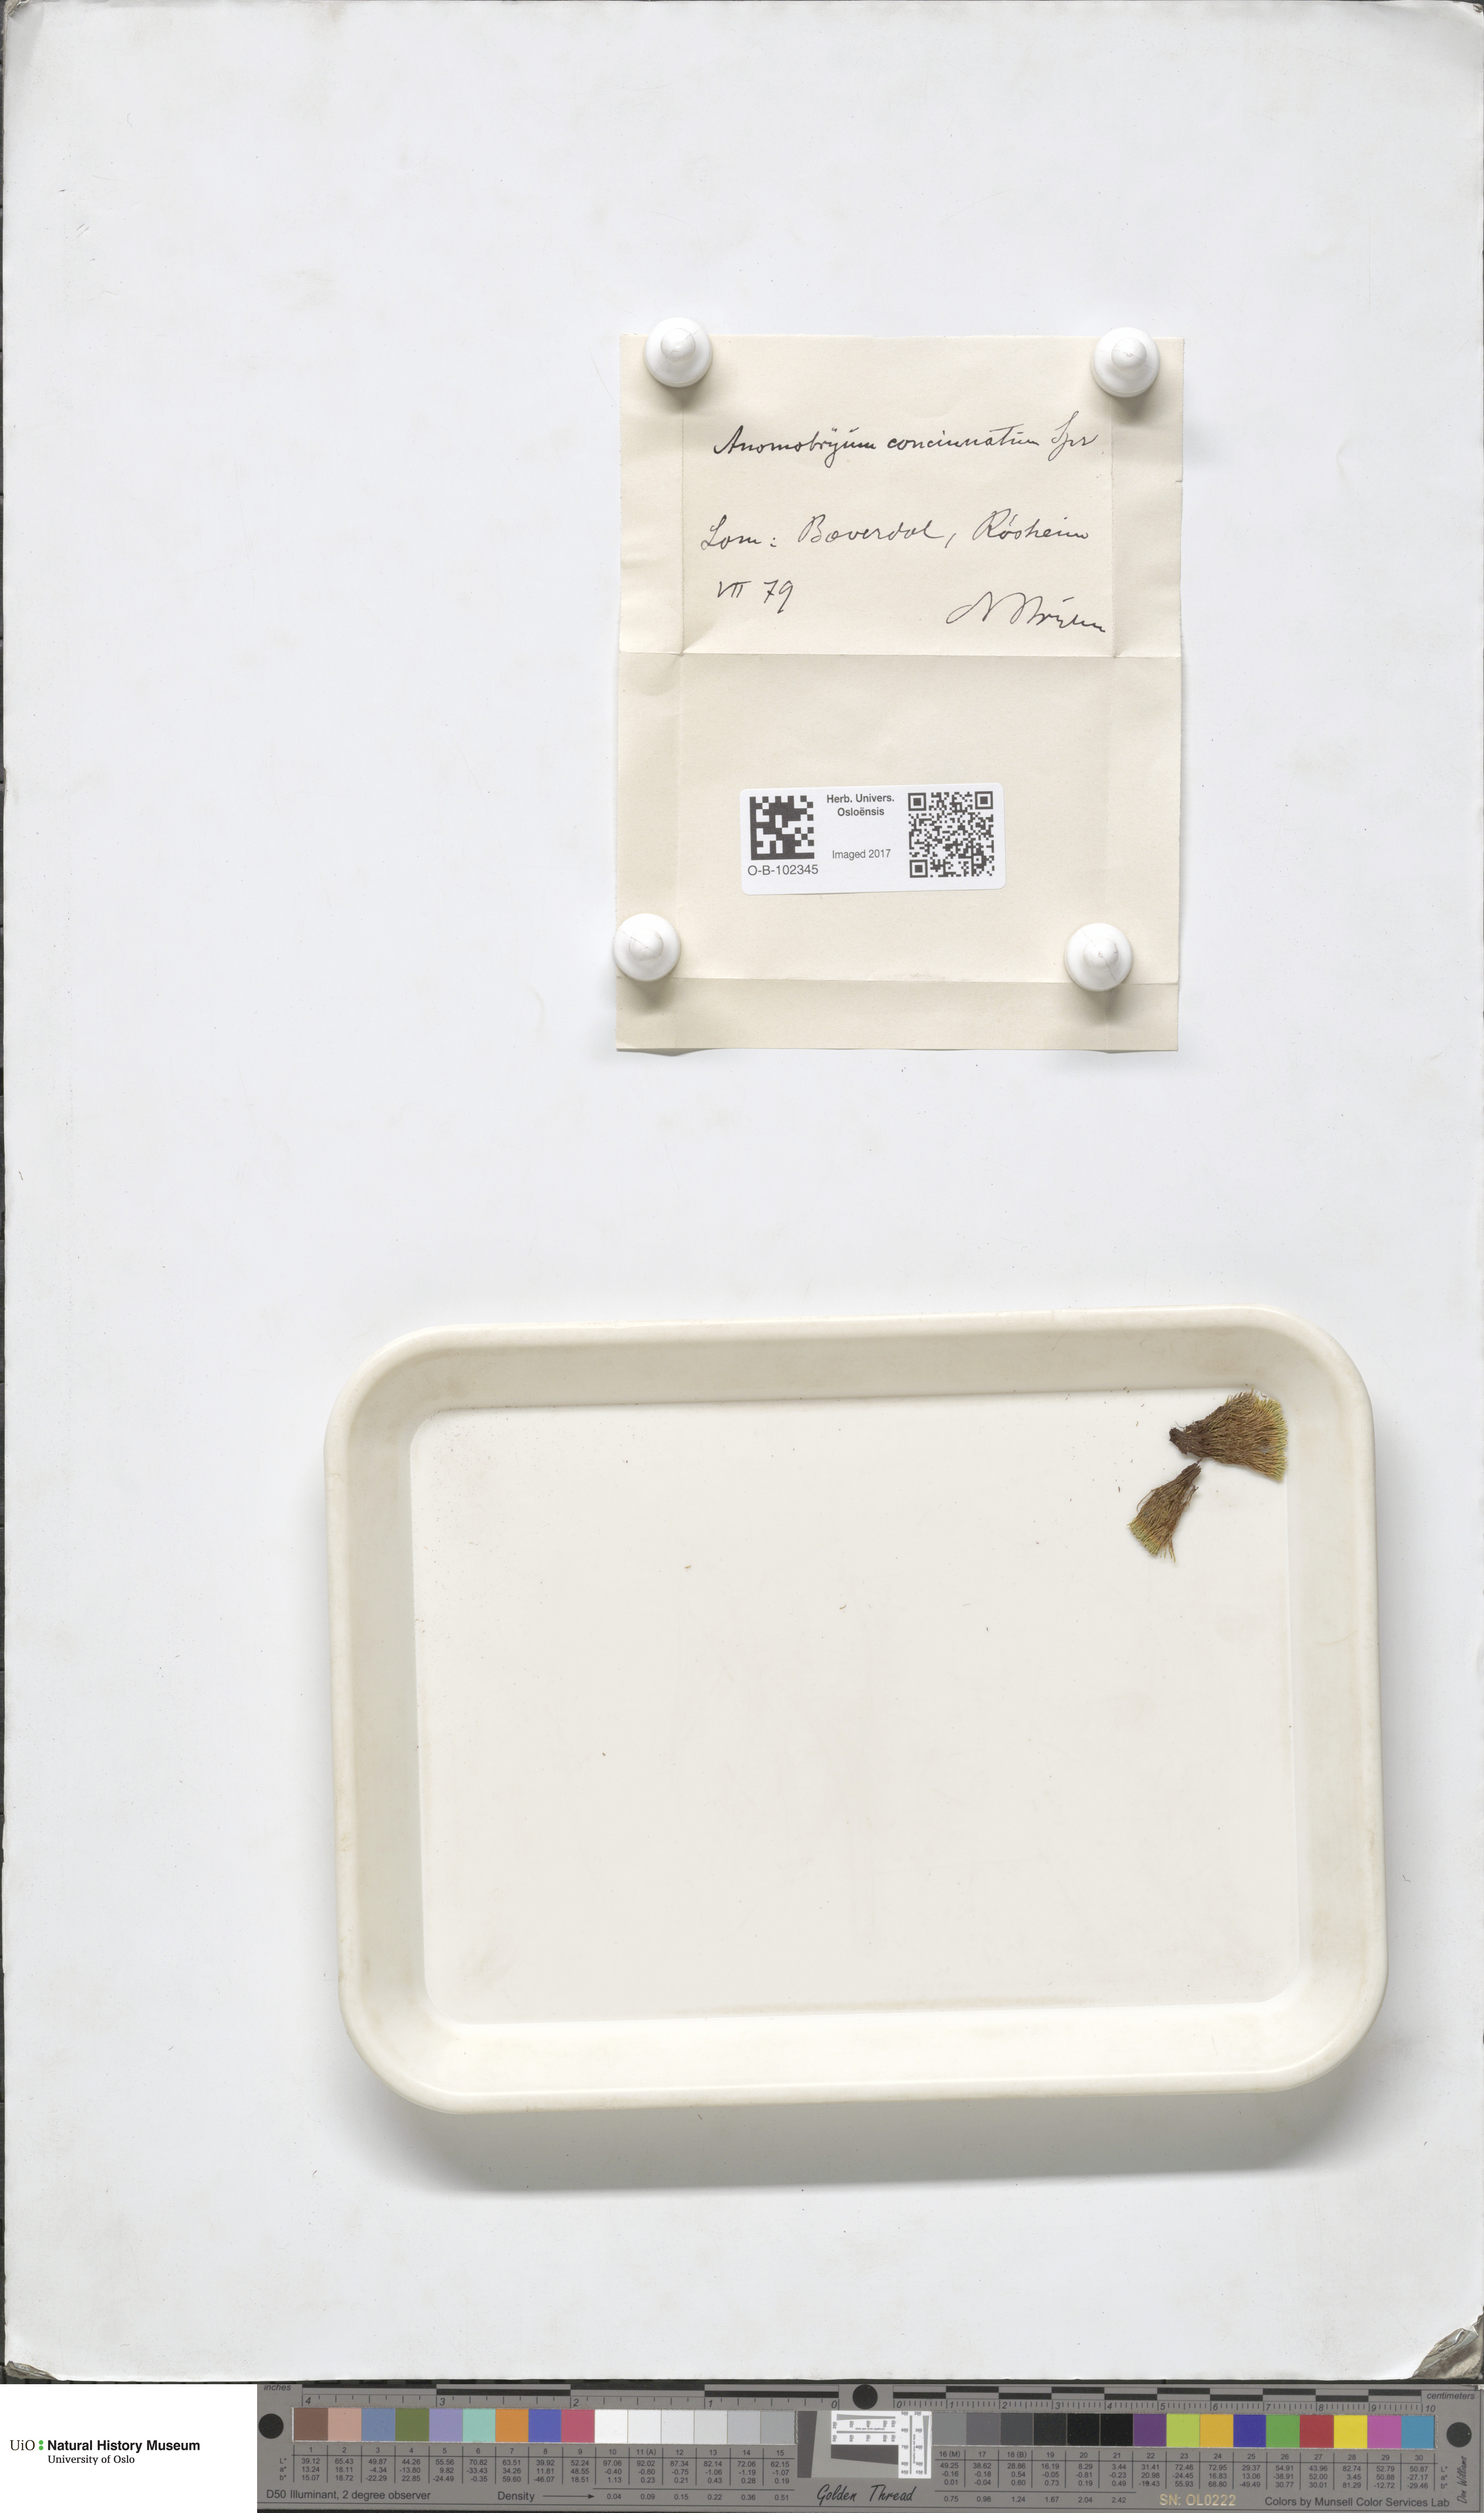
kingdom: Plantae
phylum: Bryophyta
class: Bryopsida
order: Bryales
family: Bryaceae
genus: Anomobryum
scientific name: Anomobryum julaceum
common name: Slender silver moss
